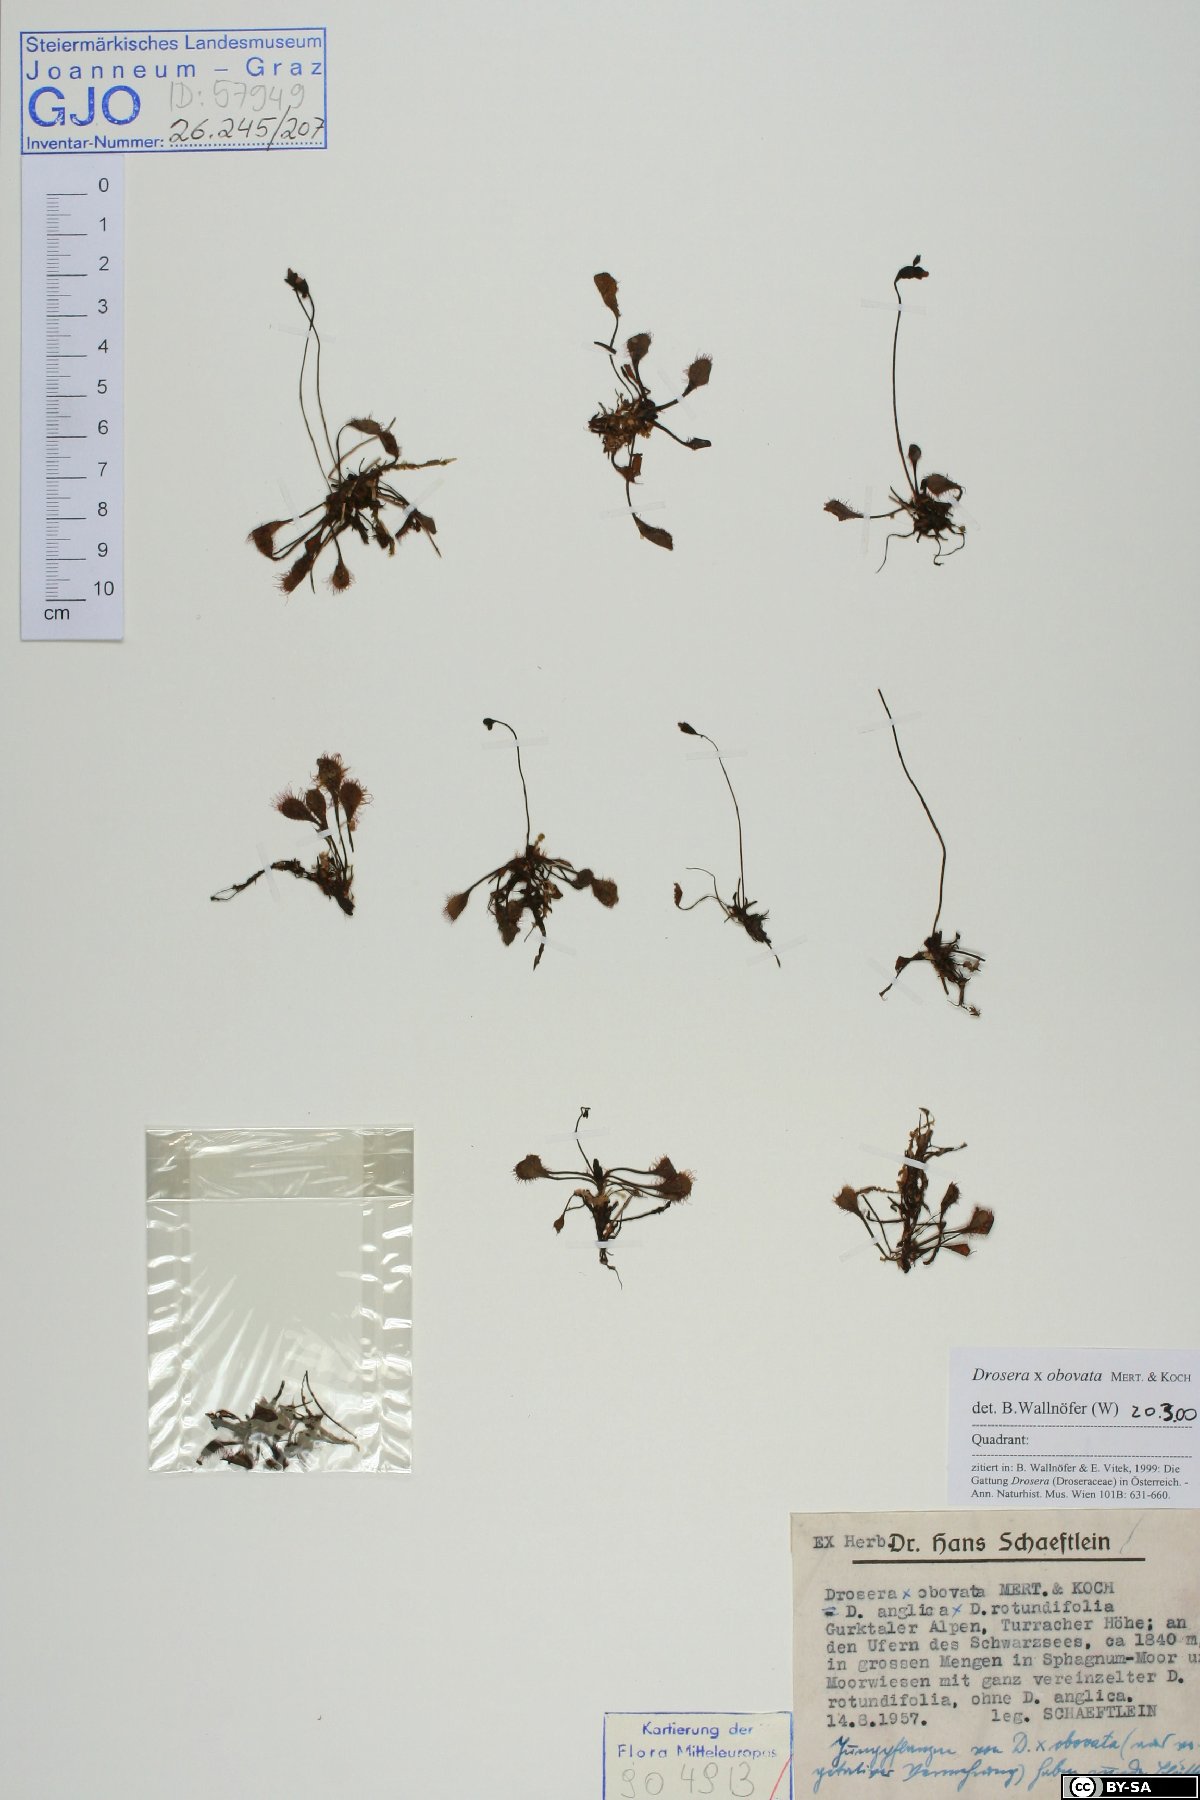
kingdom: Plantae
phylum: Tracheophyta
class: Magnoliopsida
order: Caryophyllales
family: Droseraceae
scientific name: Droseraceae
